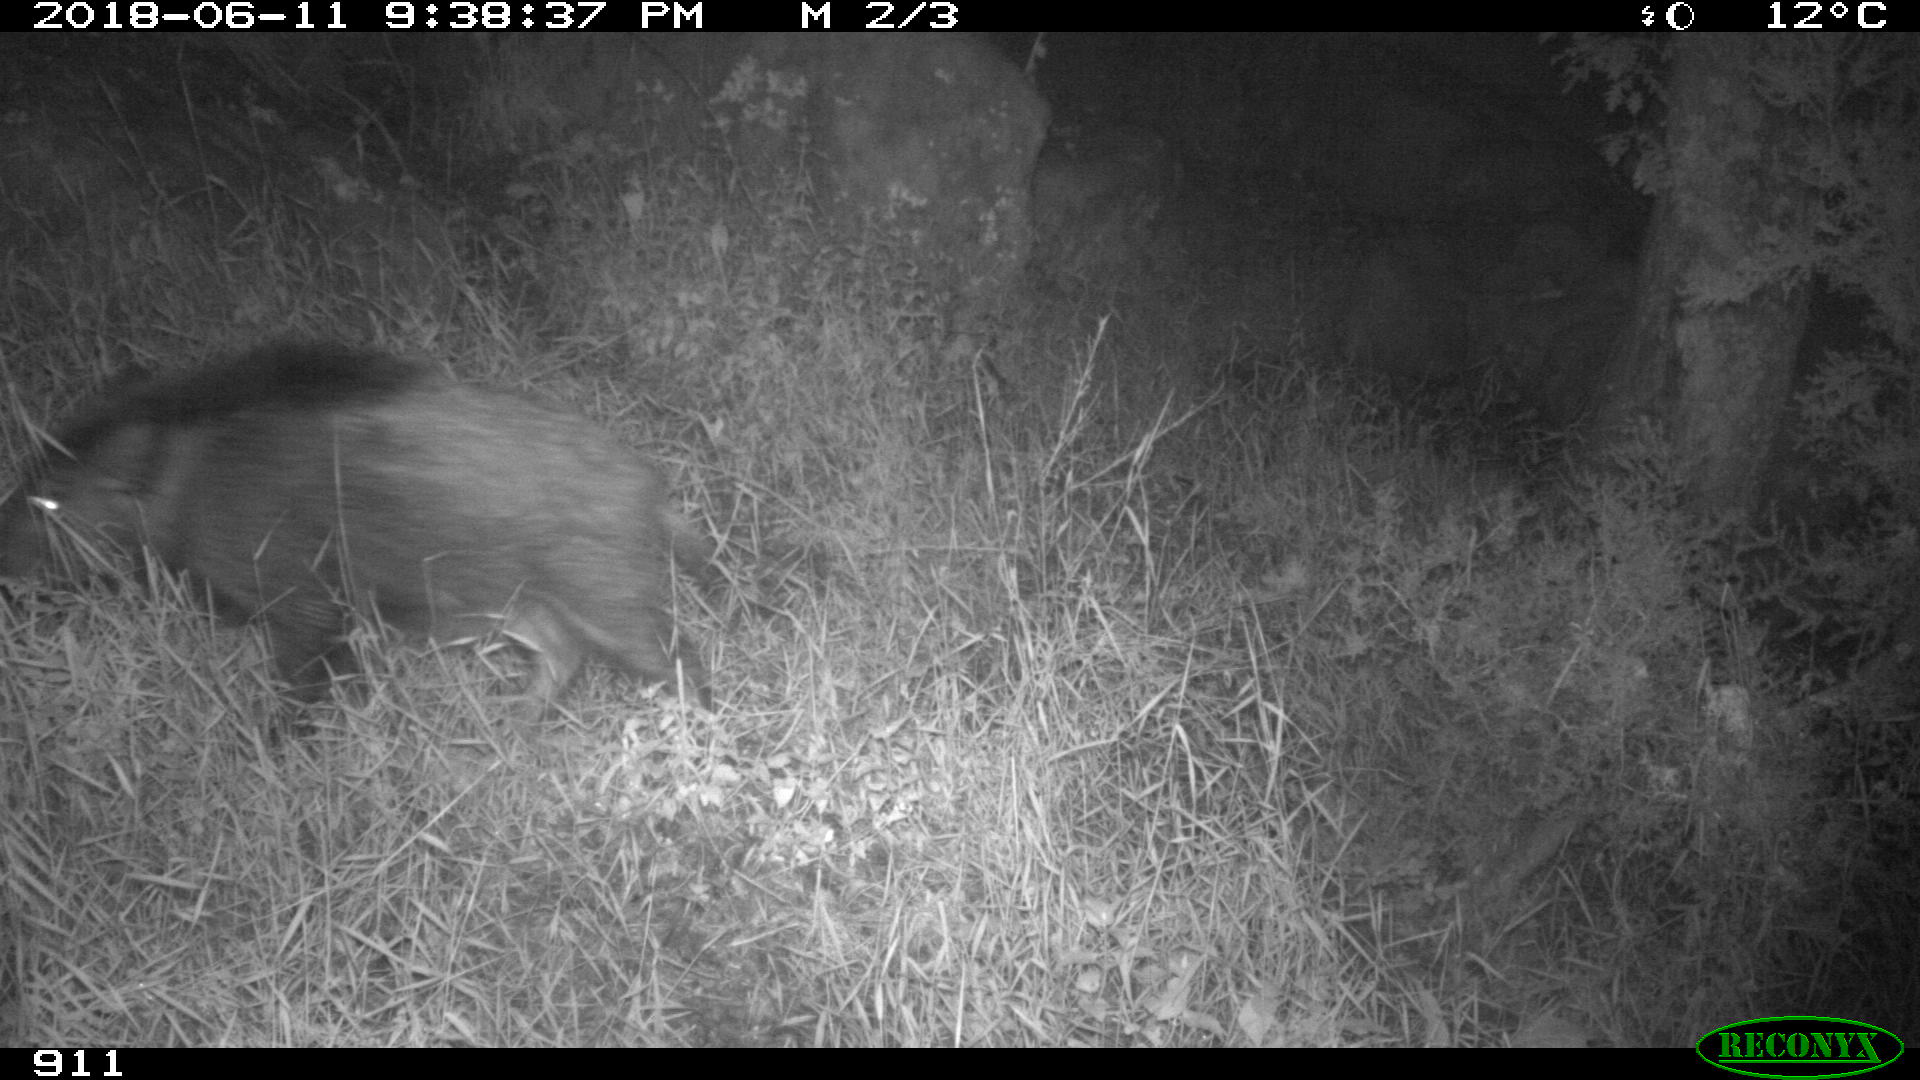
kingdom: Animalia
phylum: Chordata
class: Mammalia
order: Artiodactyla
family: Suidae
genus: Sus
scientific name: Sus scrofa
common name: Wild boar
